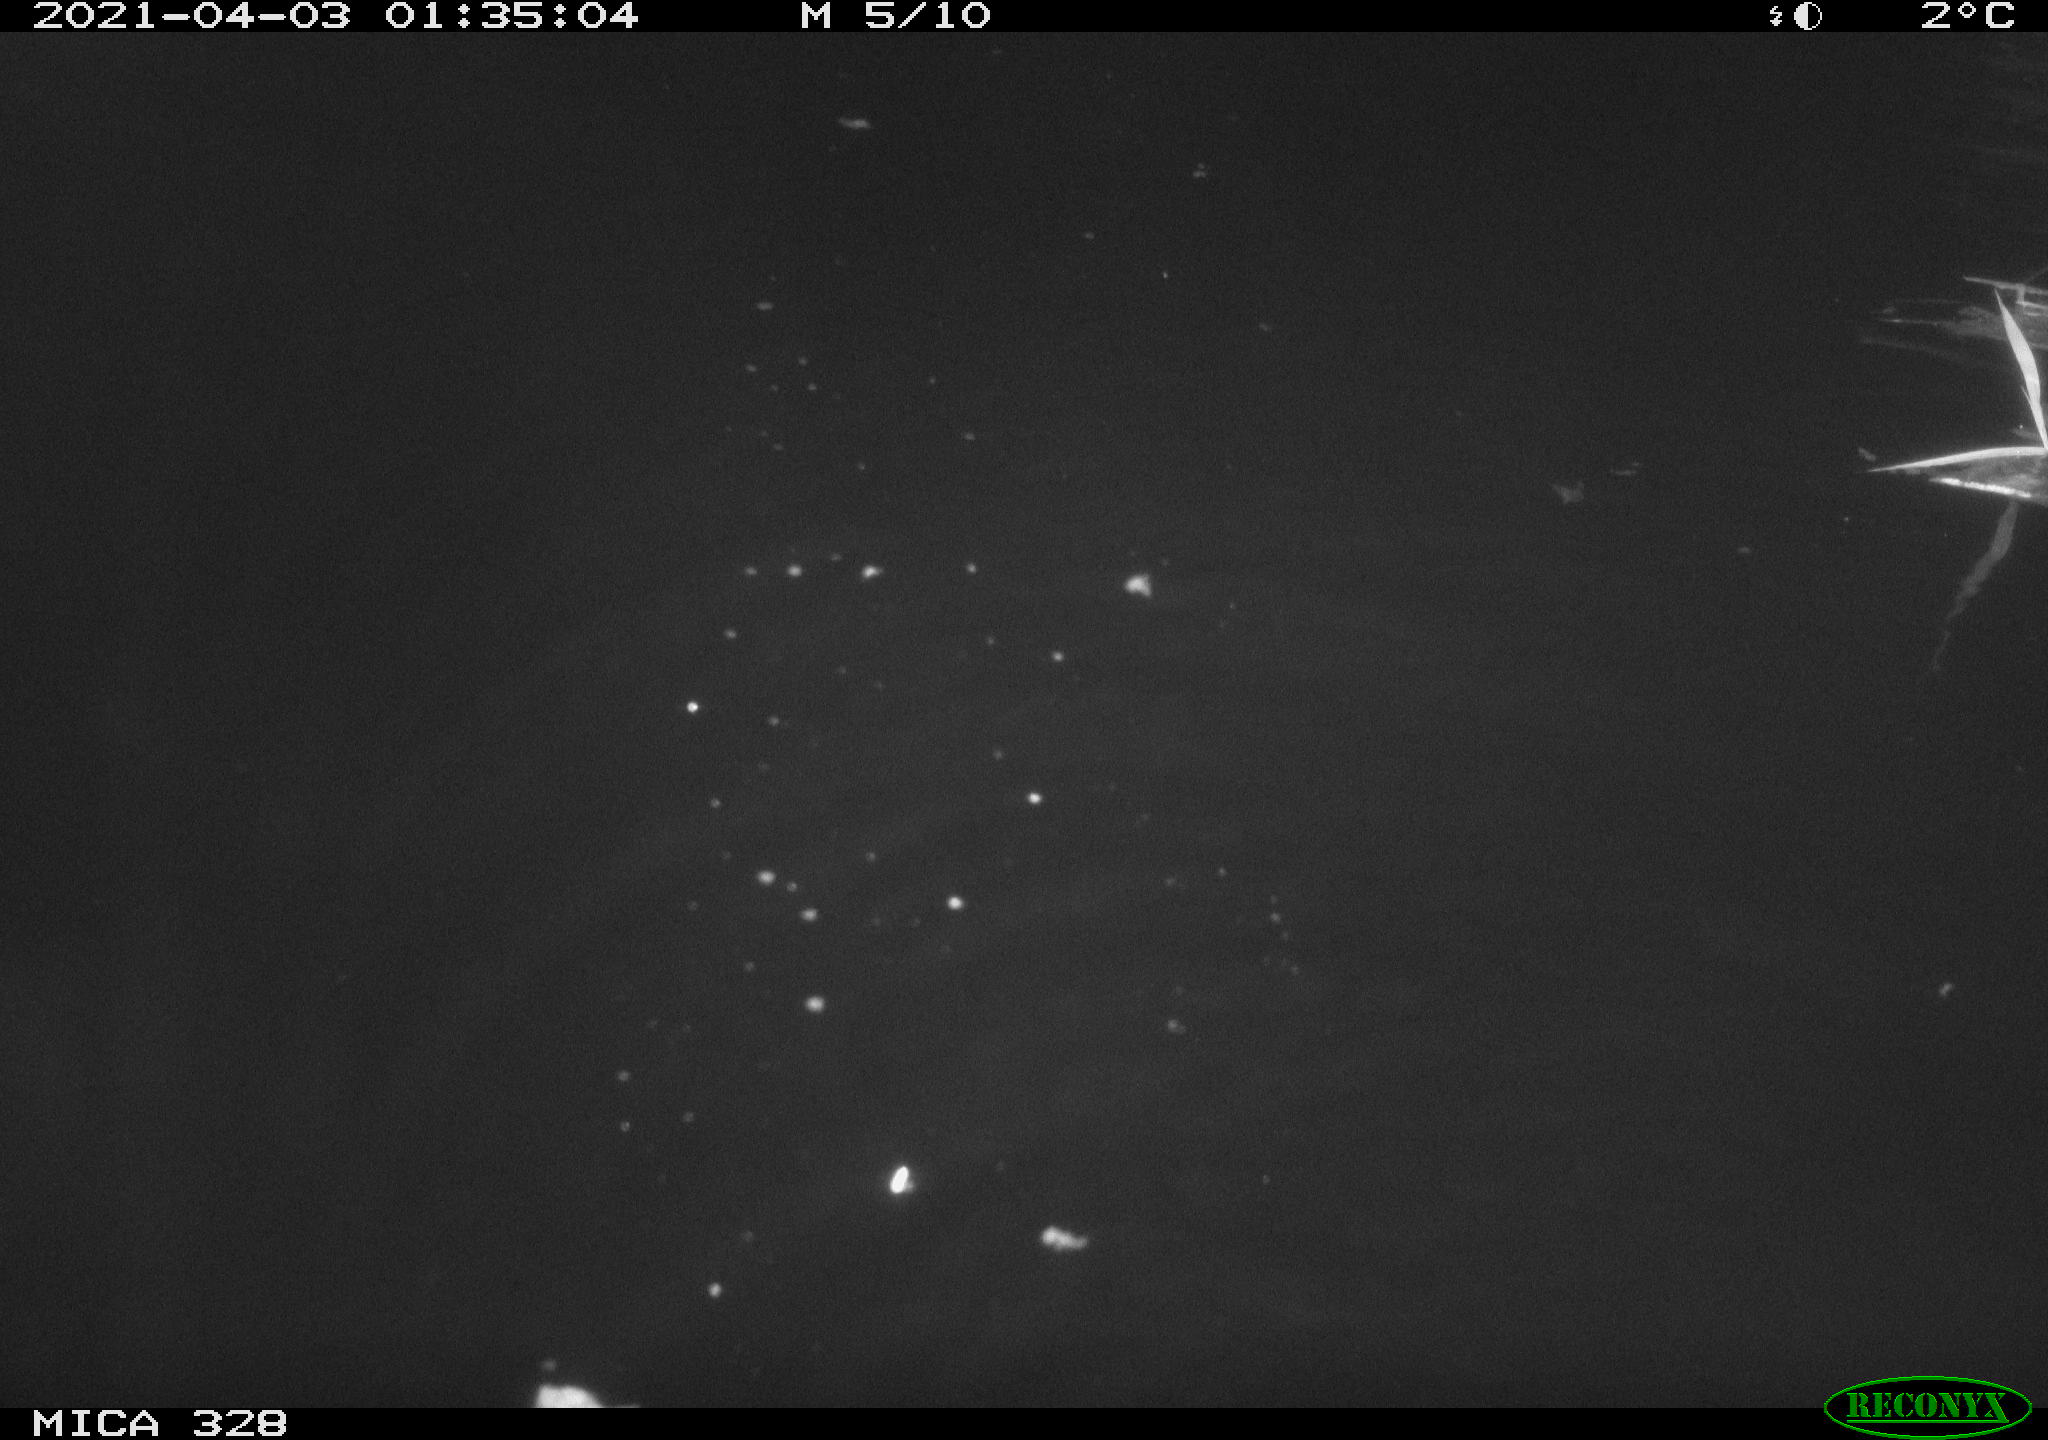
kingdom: Animalia
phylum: Chordata
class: Mammalia
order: Rodentia
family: Cricetidae
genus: Ondatra
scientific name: Ondatra zibethicus
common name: Muskrat
